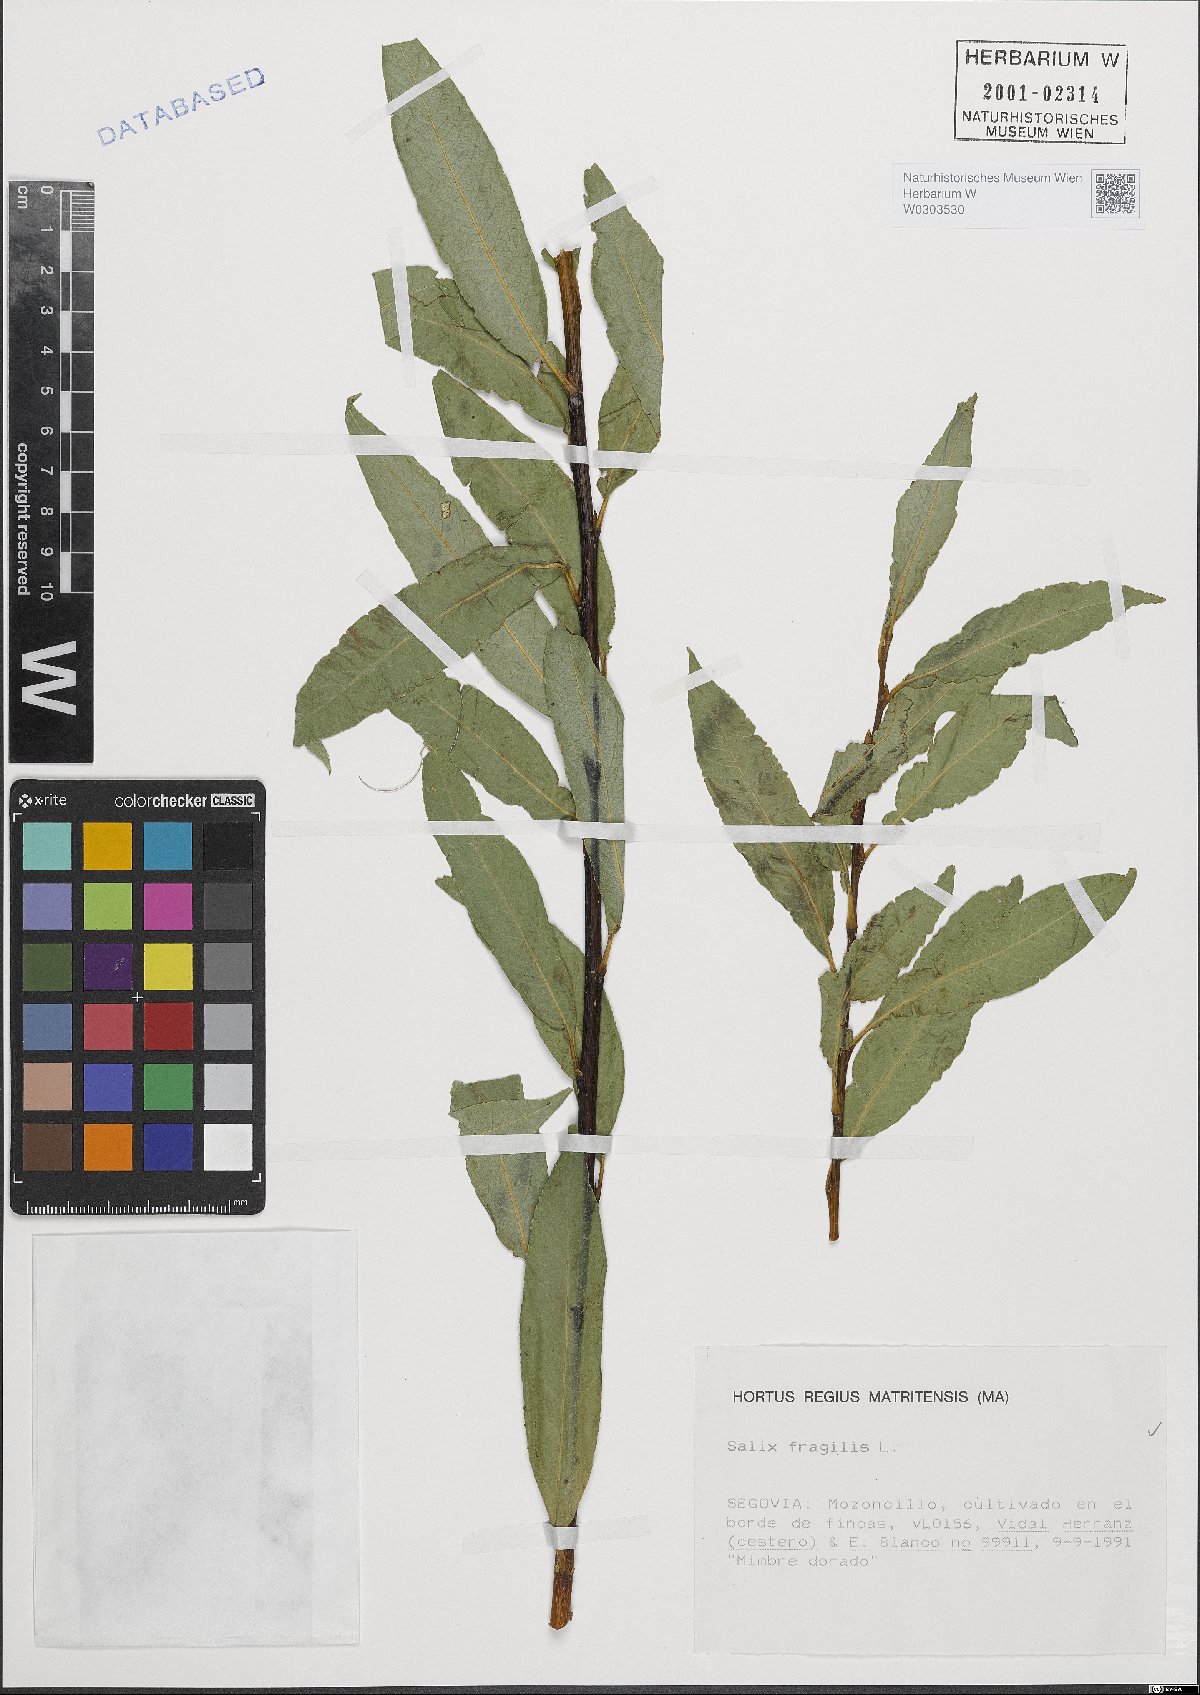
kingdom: Plantae
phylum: Tracheophyta
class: Magnoliopsida
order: Malpighiales
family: Salicaceae
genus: Salix
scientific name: Salix fragilis
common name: Crack willow
